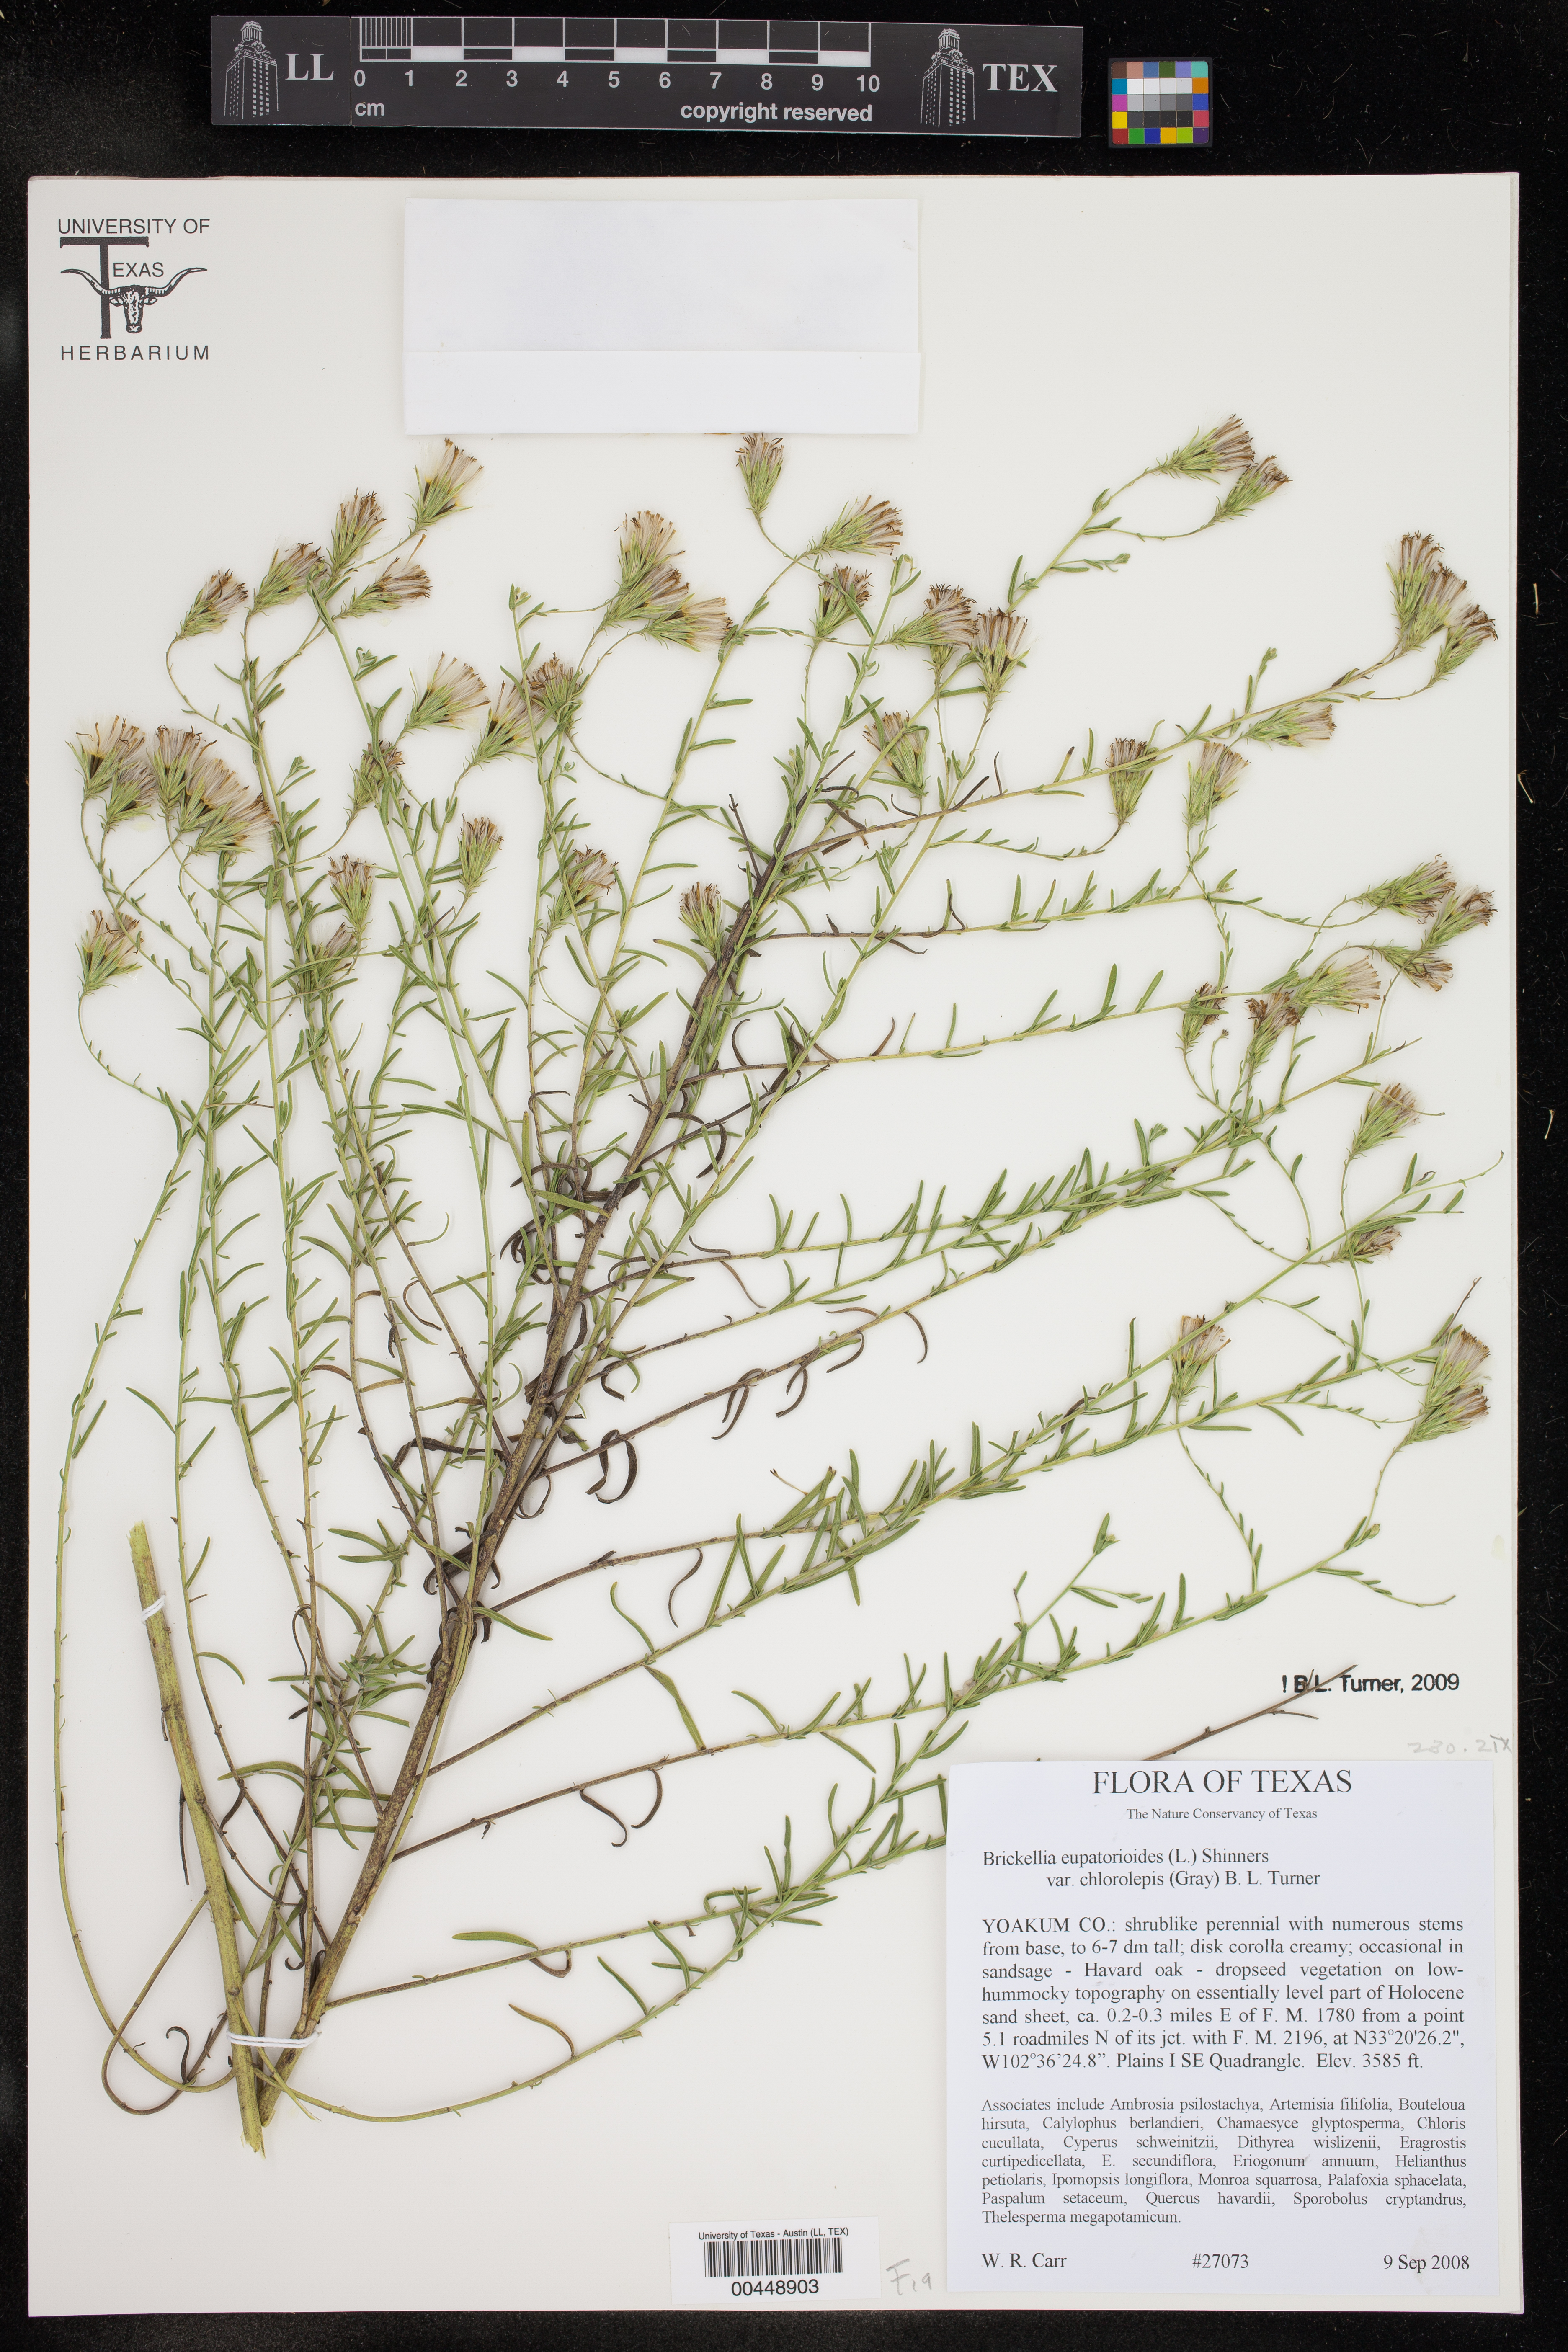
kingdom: Plantae
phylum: Tracheophyta
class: Magnoliopsida
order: Asterales
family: Asteraceae
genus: Brickellia
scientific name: Brickellia leptophylla
